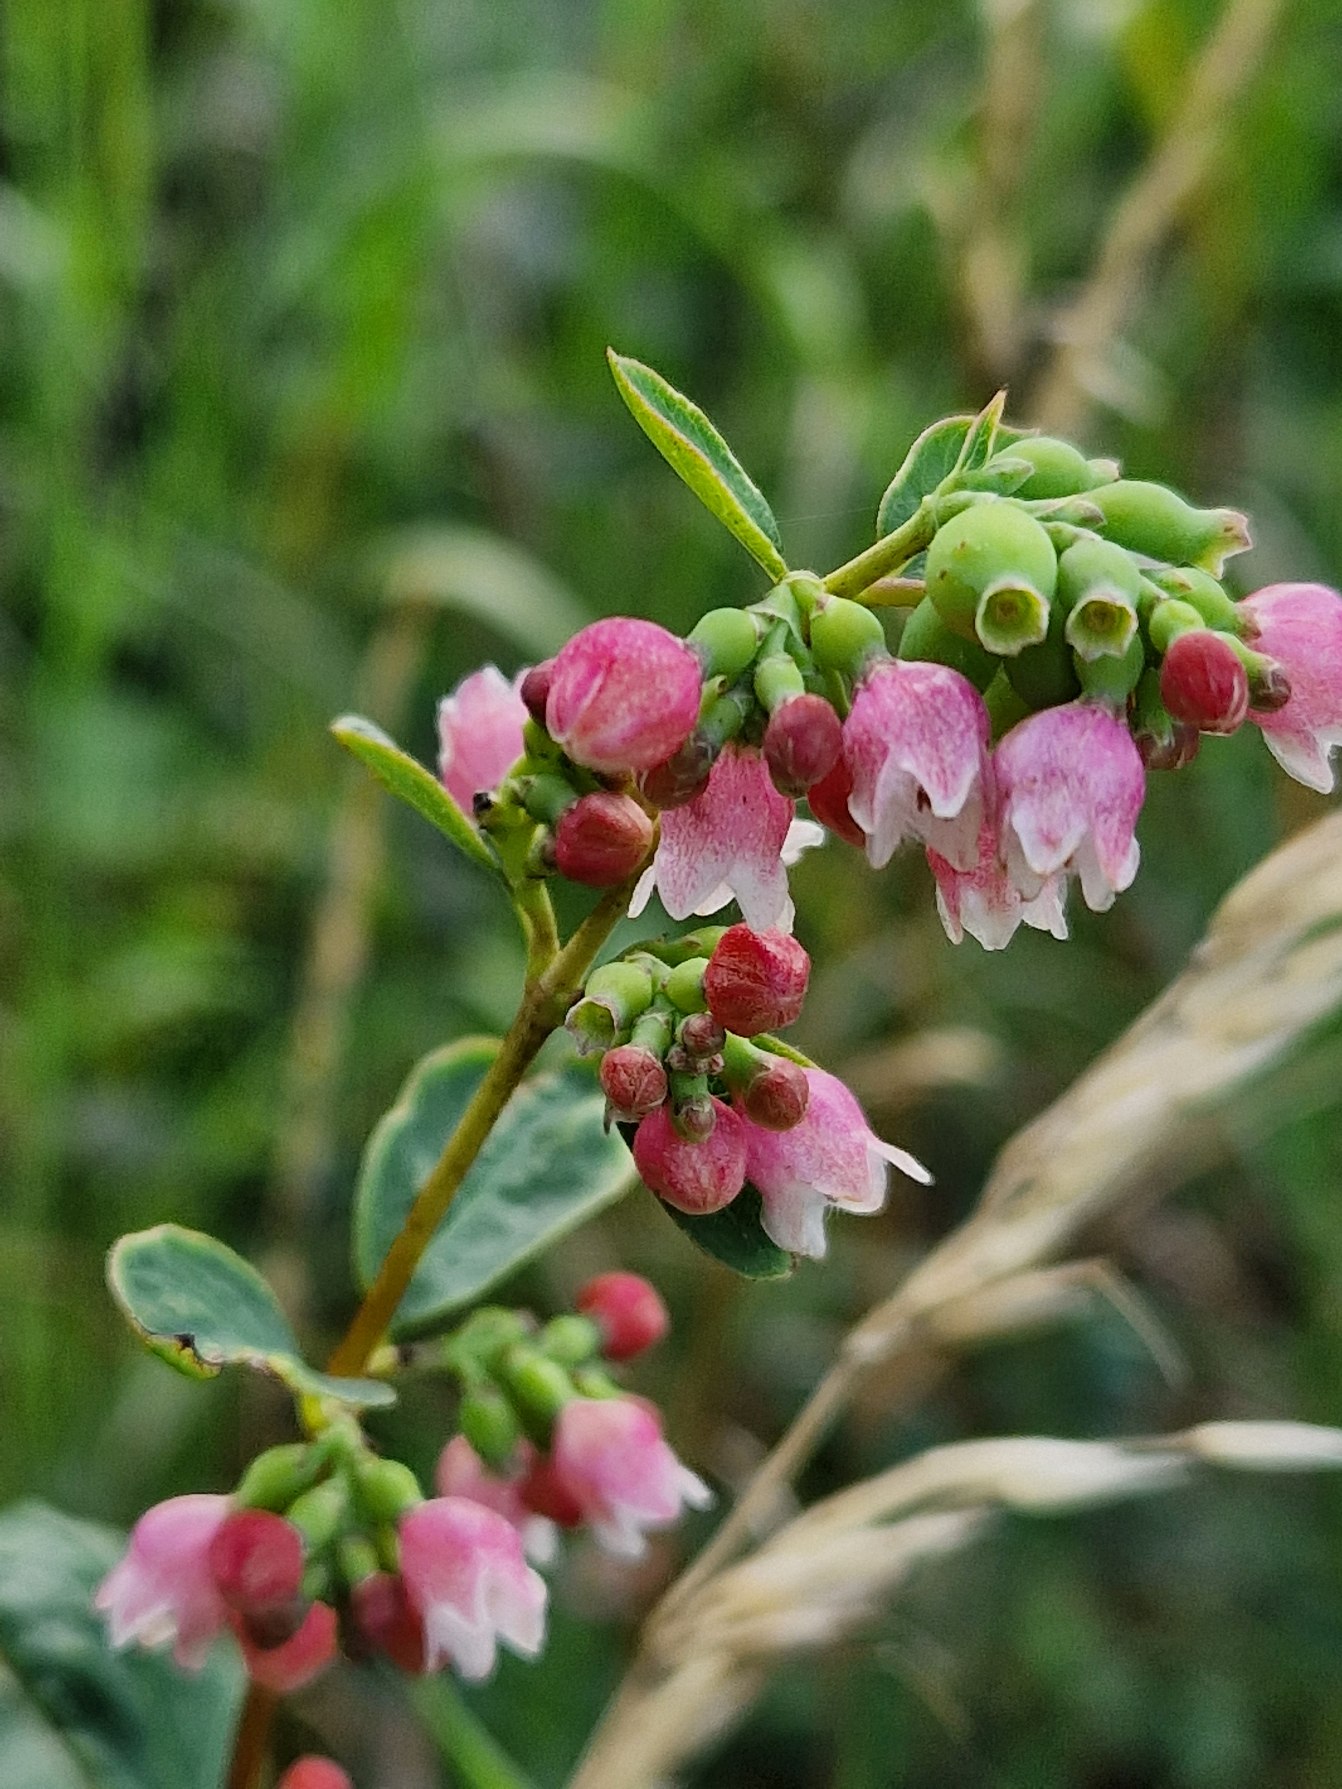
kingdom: Plantae
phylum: Tracheophyta
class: Magnoliopsida
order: Dipsacales
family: Caprifoliaceae
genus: Symphoricarpos
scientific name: Symphoricarpos albus
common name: Almindelig snebær
